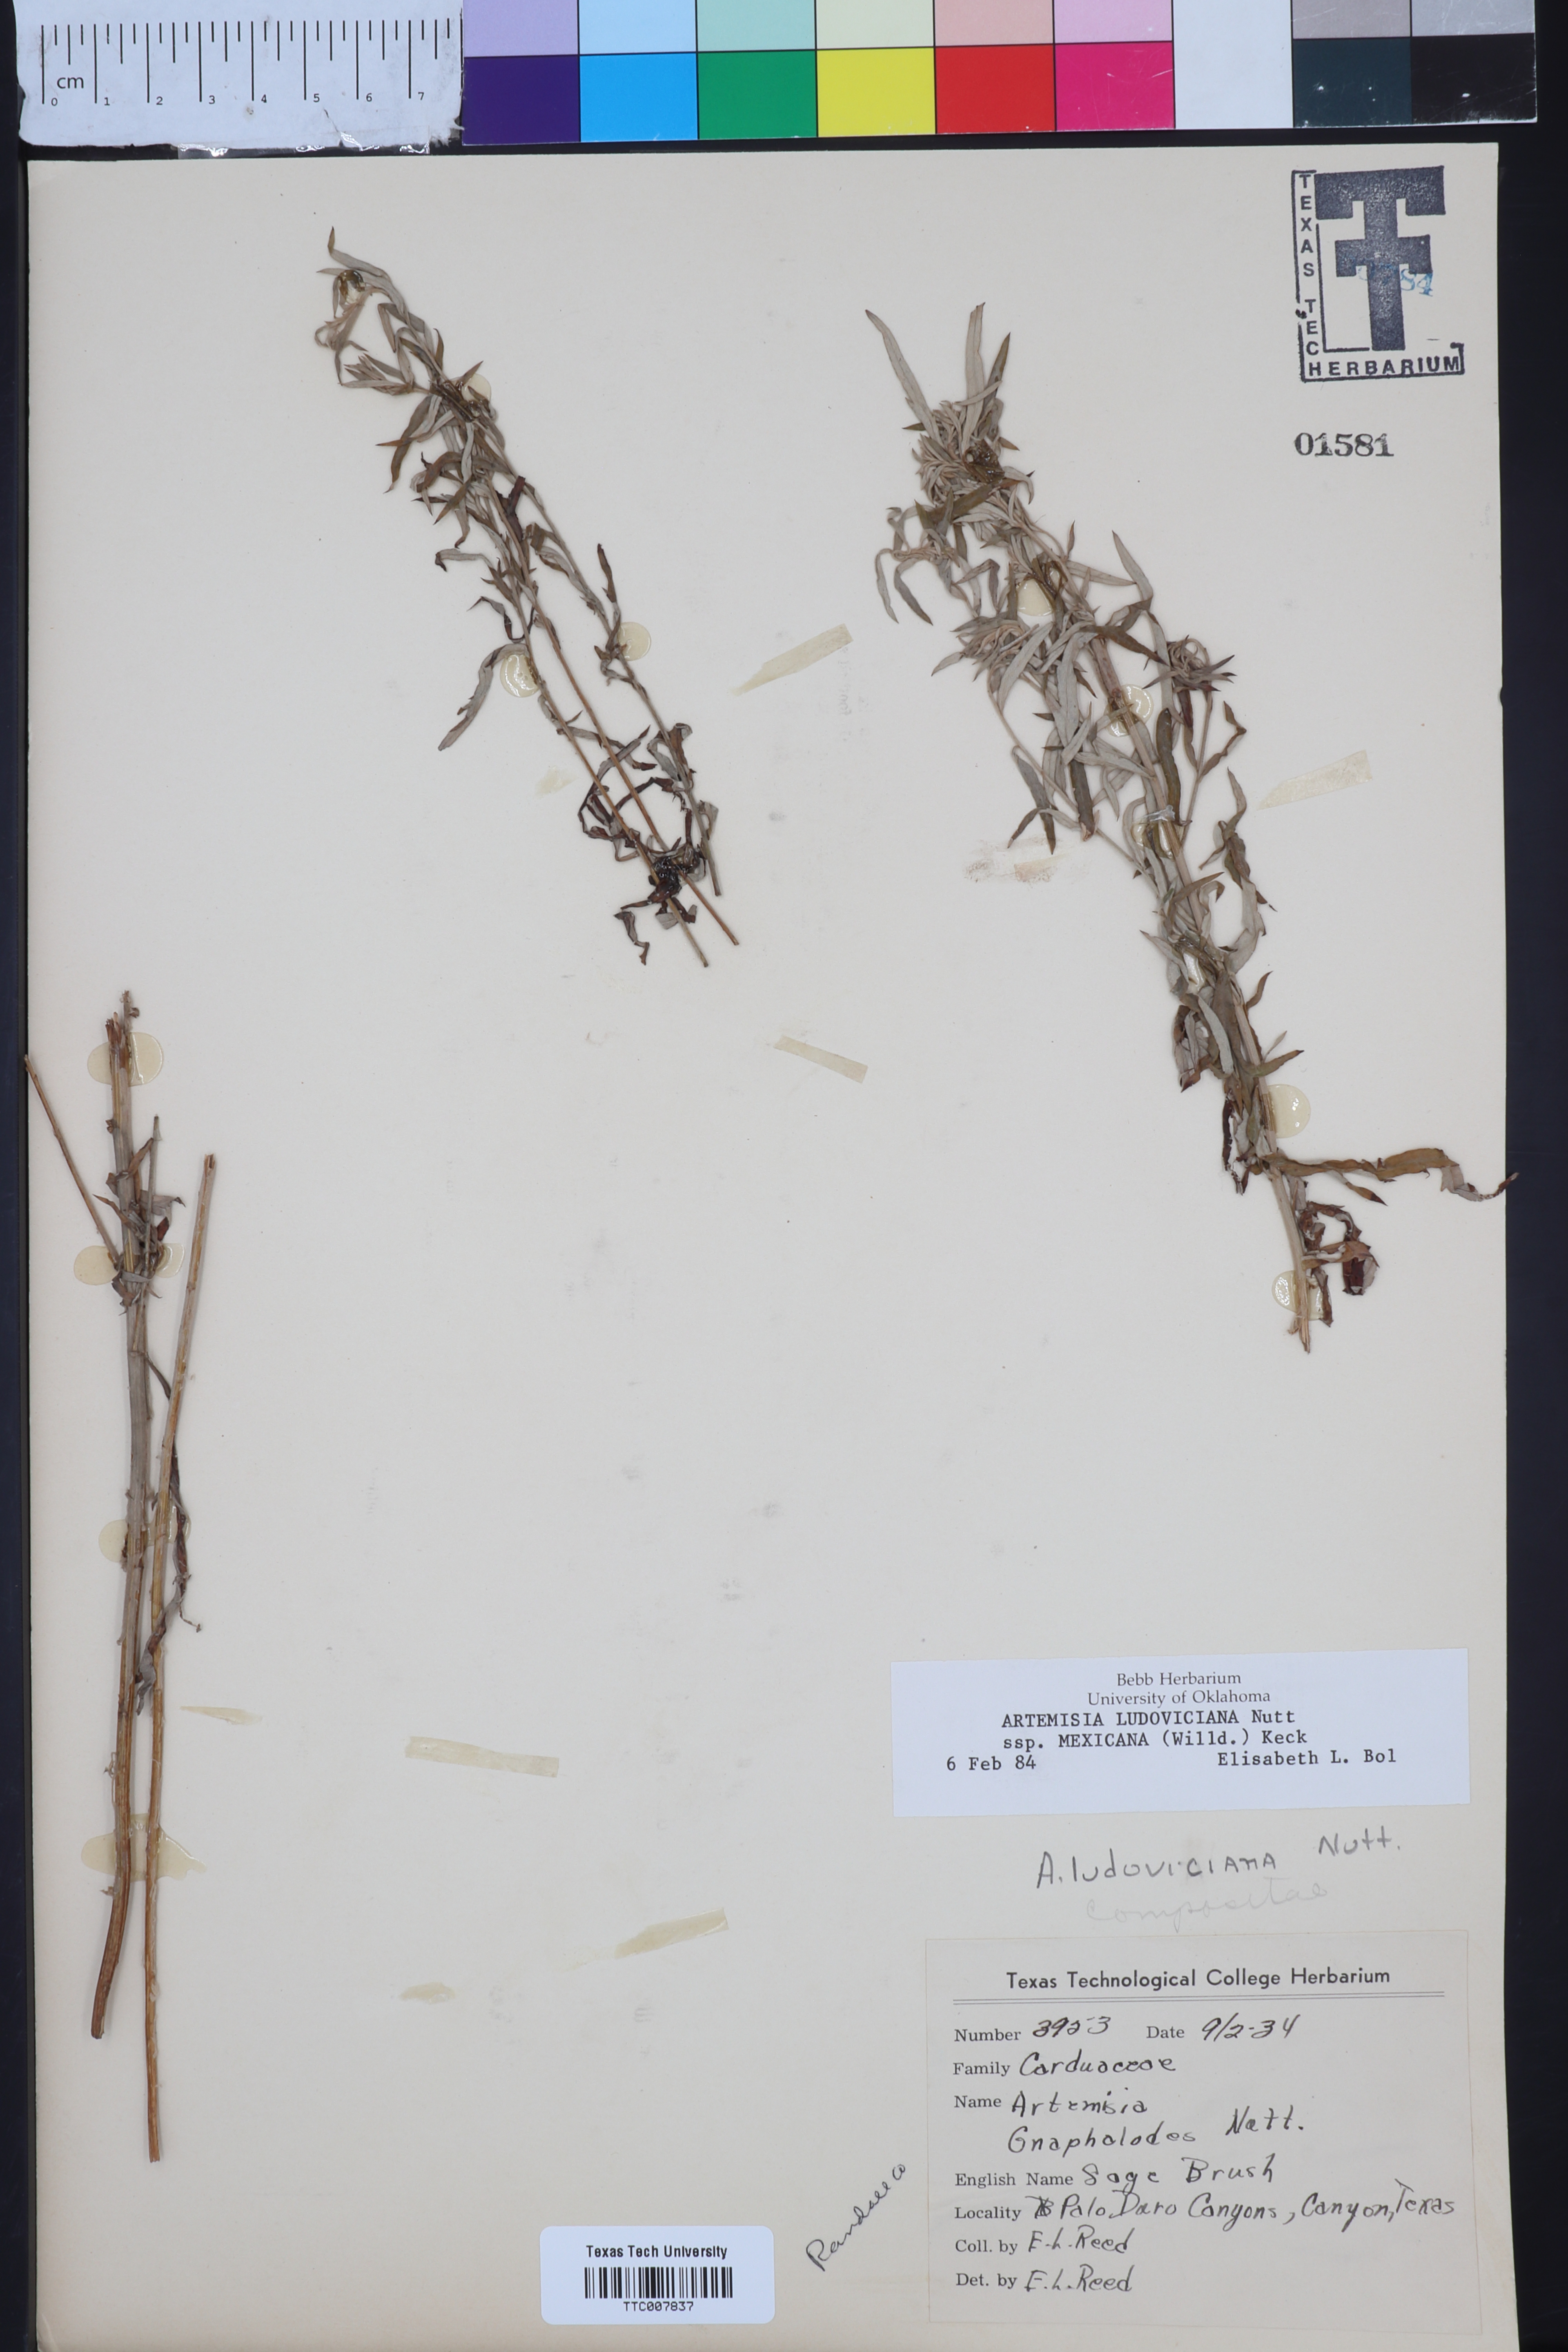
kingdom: Plantae
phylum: Tracheophyta
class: Magnoliopsida
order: Asterales
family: Asteraceae
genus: Artemisia
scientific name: Artemisia ludoviciana
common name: Western mugwort
